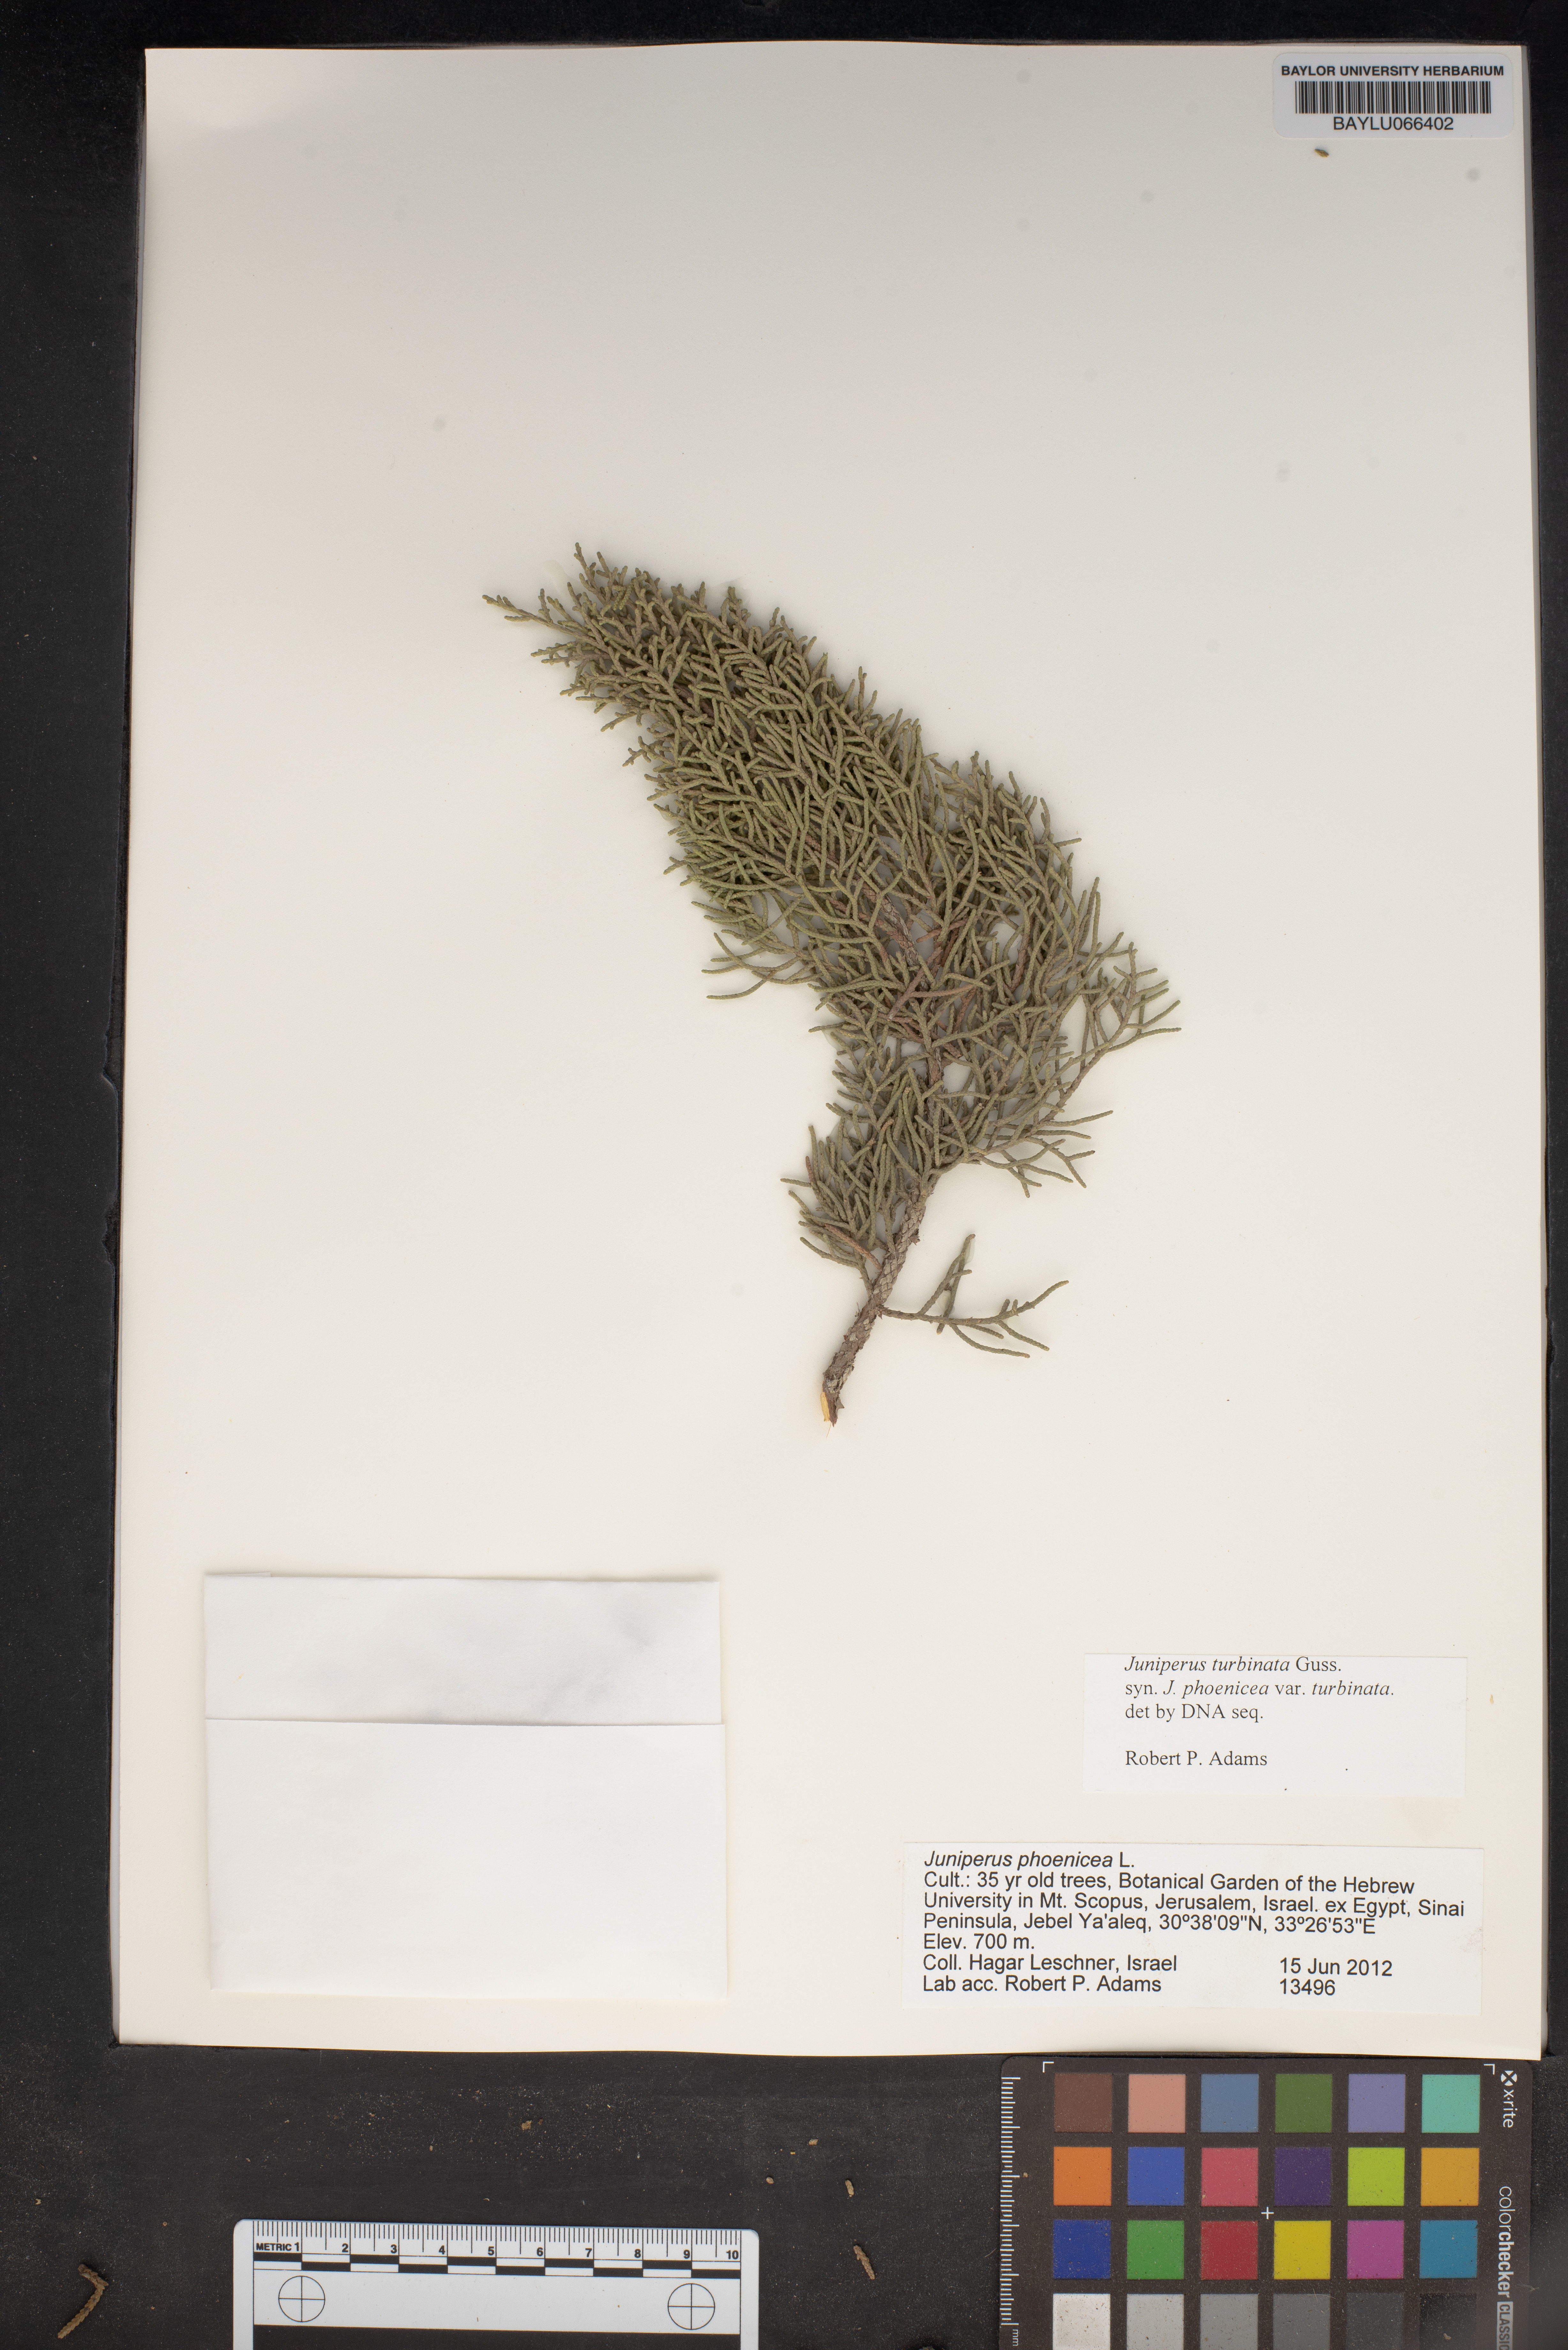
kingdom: Plantae
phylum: Tracheophyta
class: Pinopsida
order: Pinales
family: Cupressaceae
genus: Juniperus
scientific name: Juniperus phoenicea
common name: Phoenician juniper
